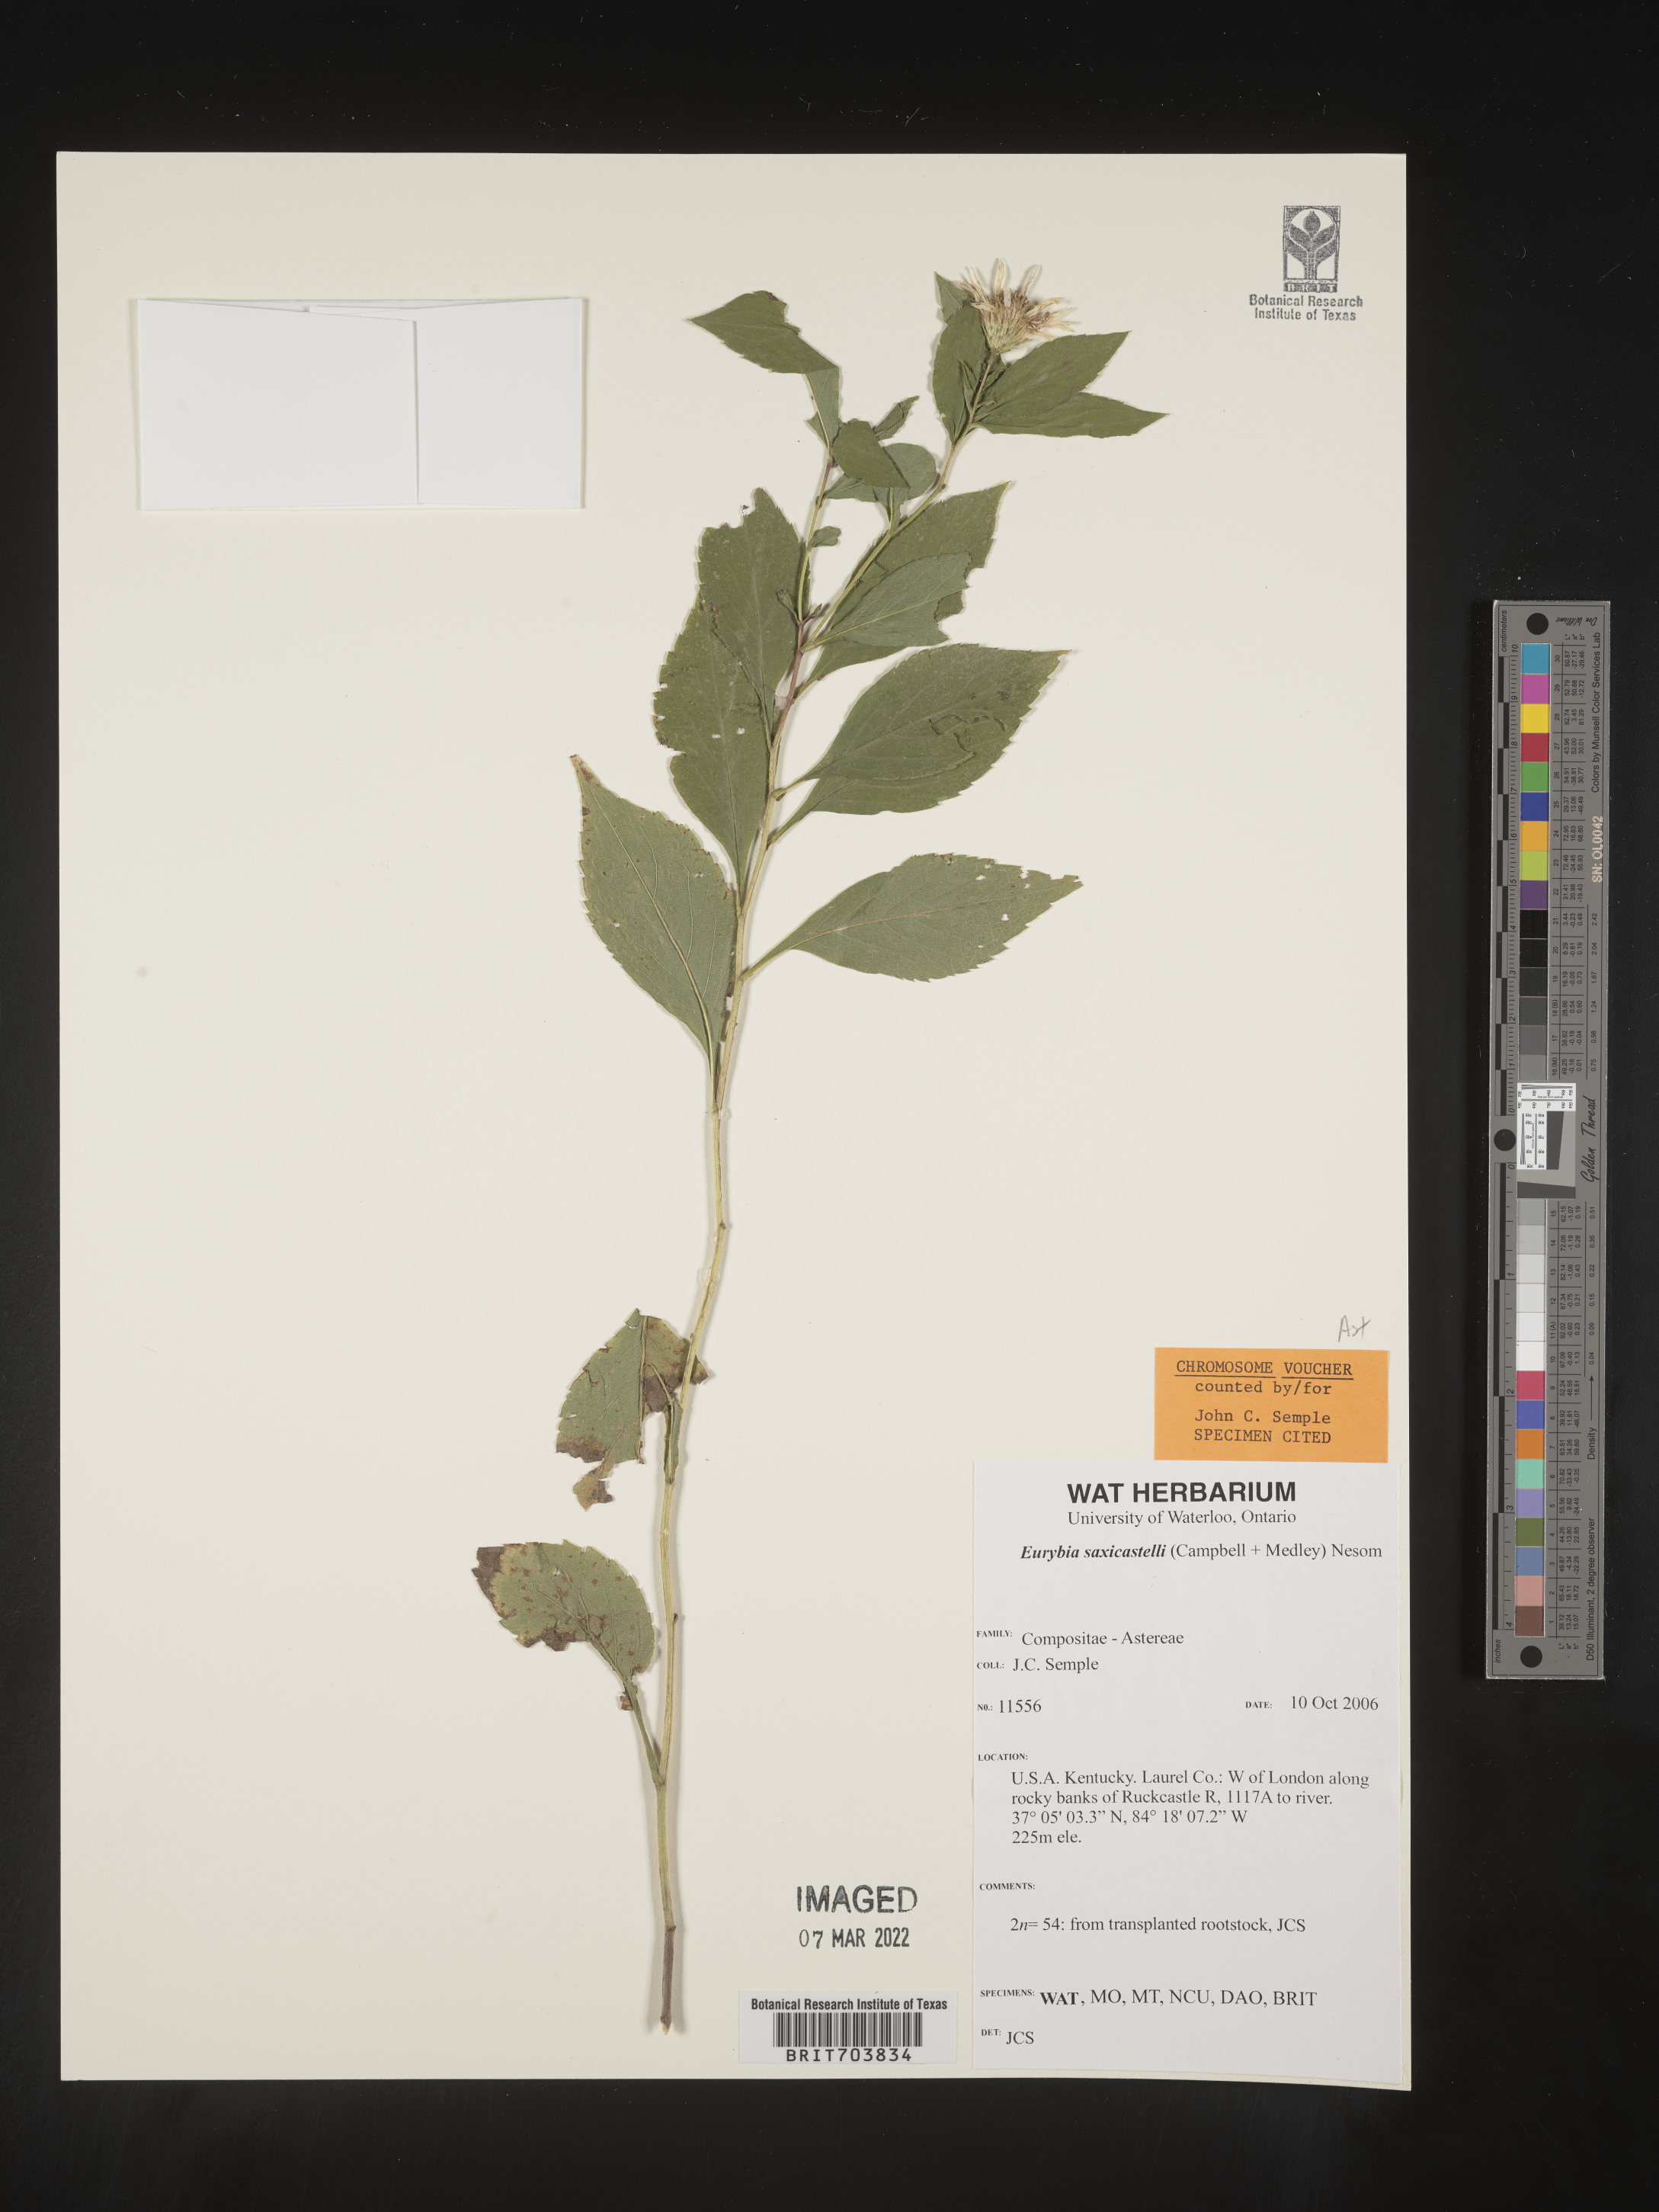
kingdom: Plantae
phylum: Tracheophyta
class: Magnoliopsida
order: Asterales
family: Asteraceae
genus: Eurybia
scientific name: Eurybia saxicastellii
